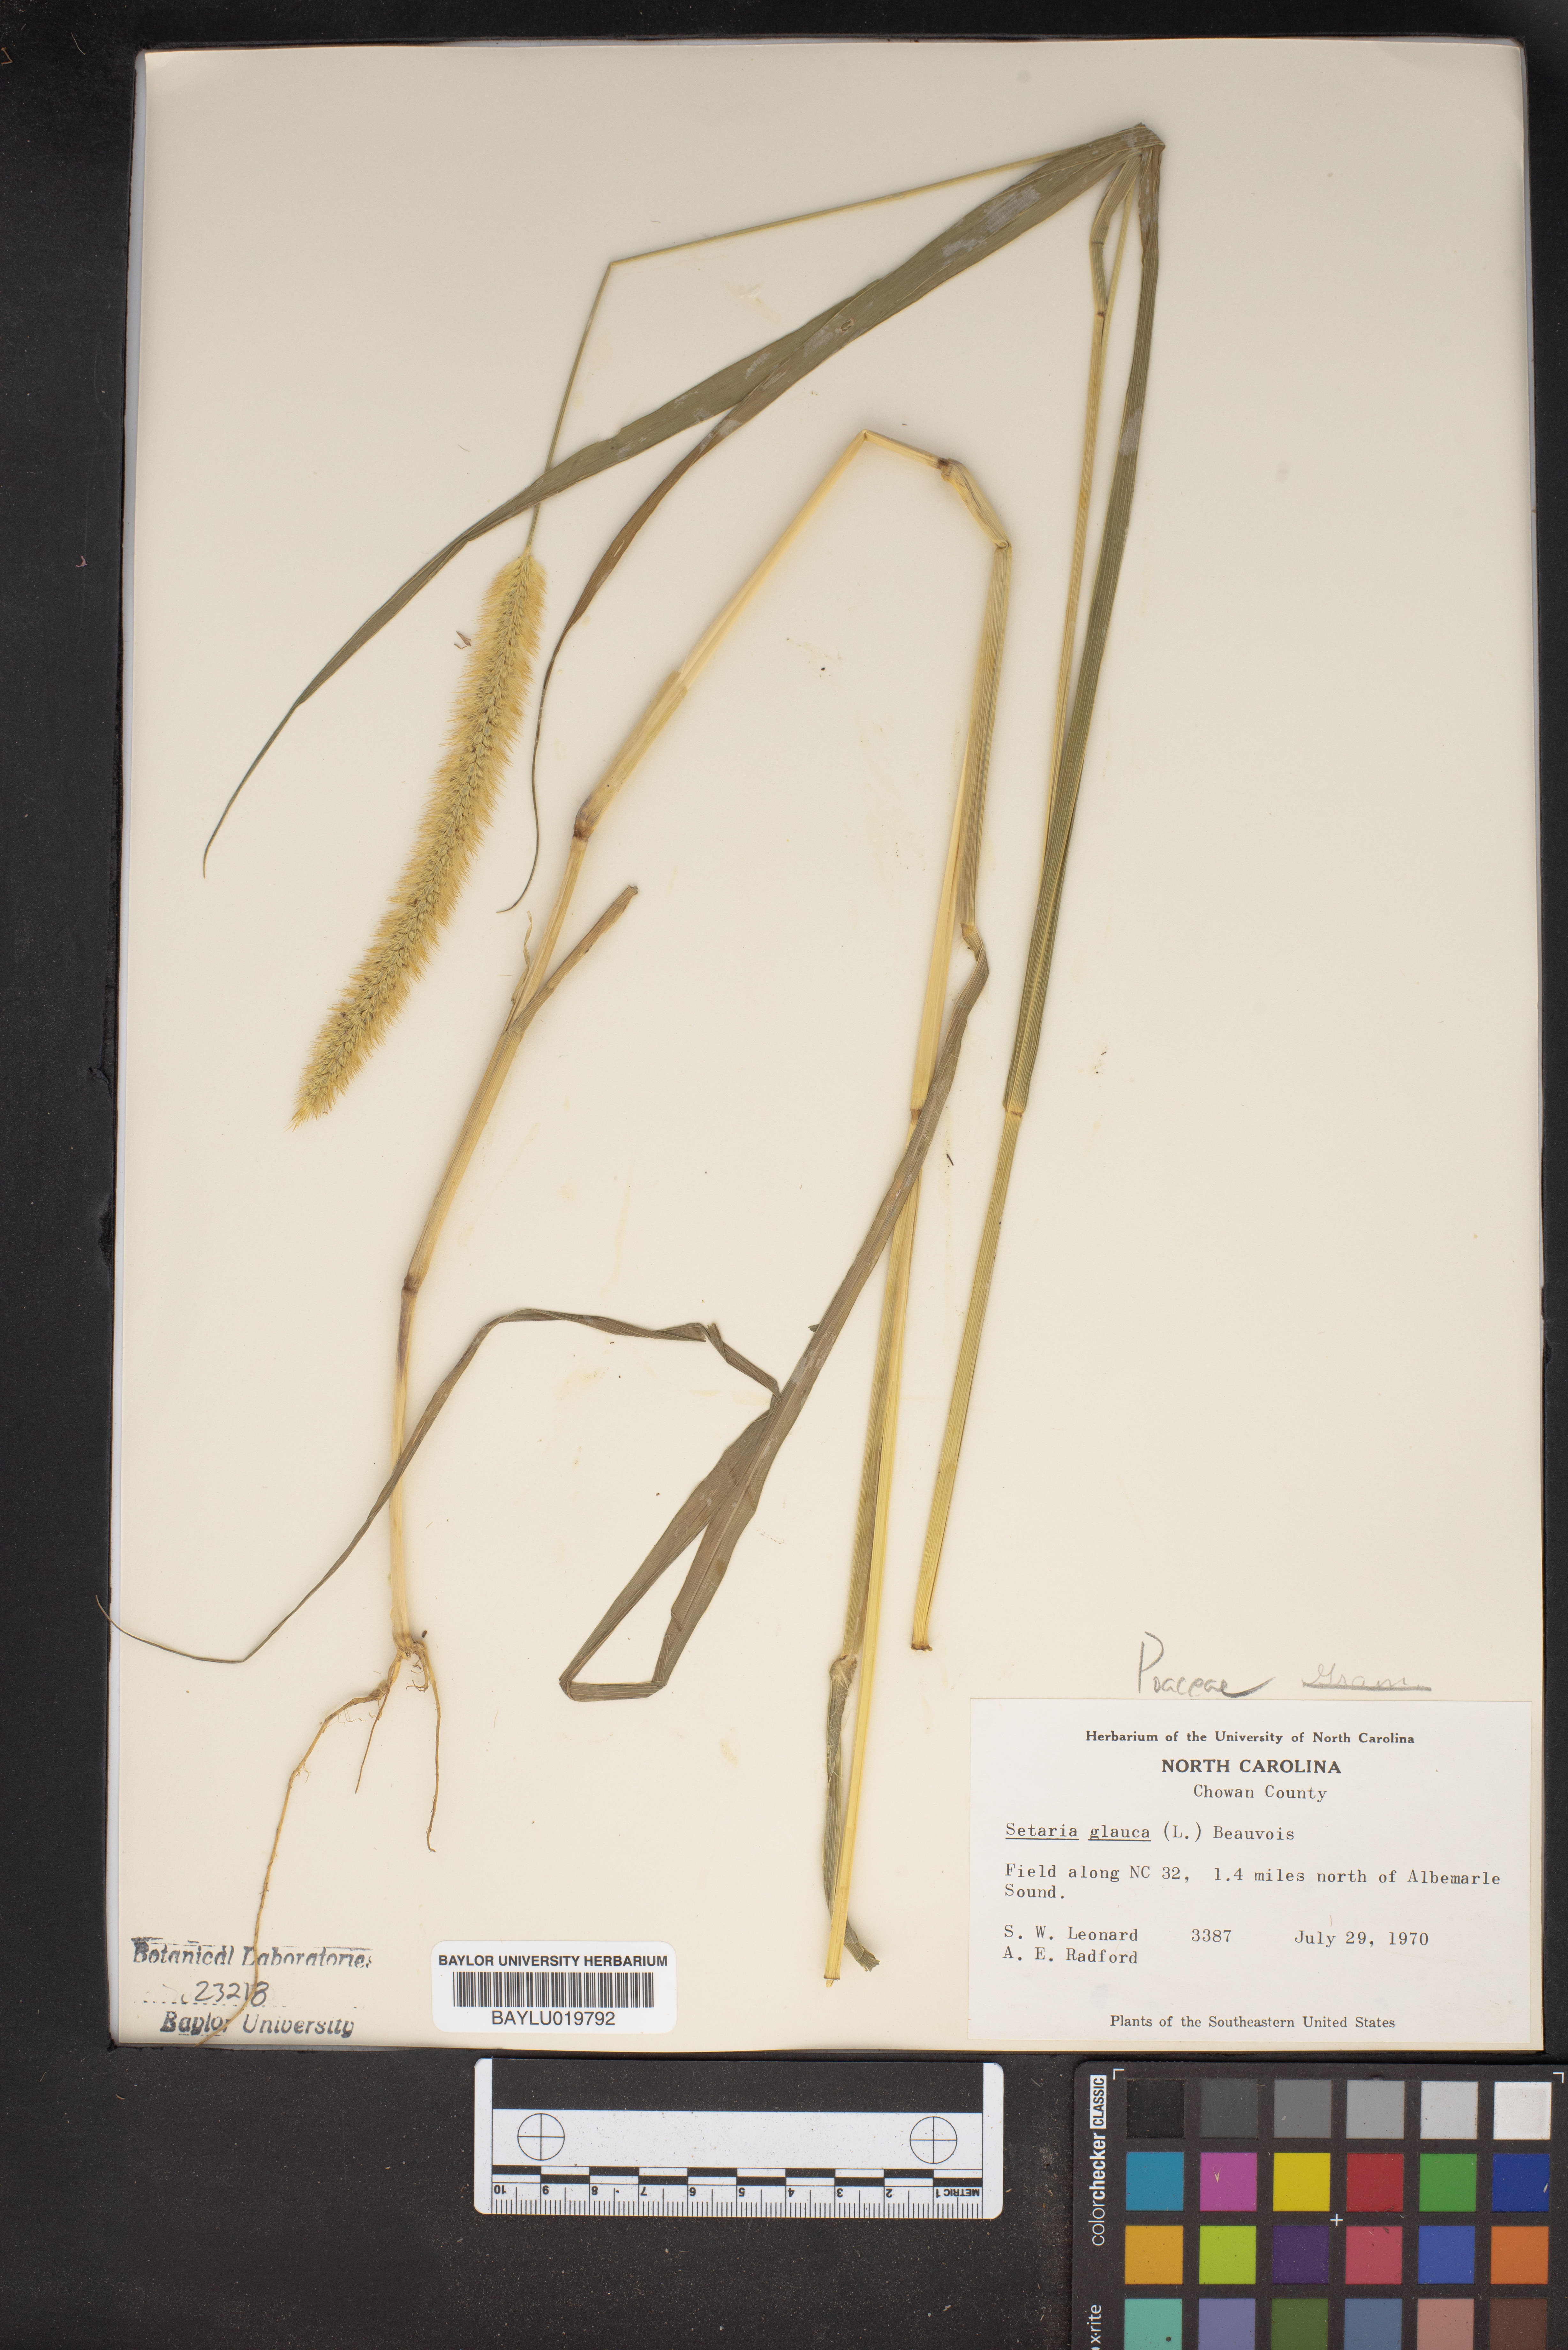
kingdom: Plantae
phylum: Tracheophyta
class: Liliopsida
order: Poales
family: Poaceae
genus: Cenchrus
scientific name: Cenchrus americanus
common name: Pearl millet
